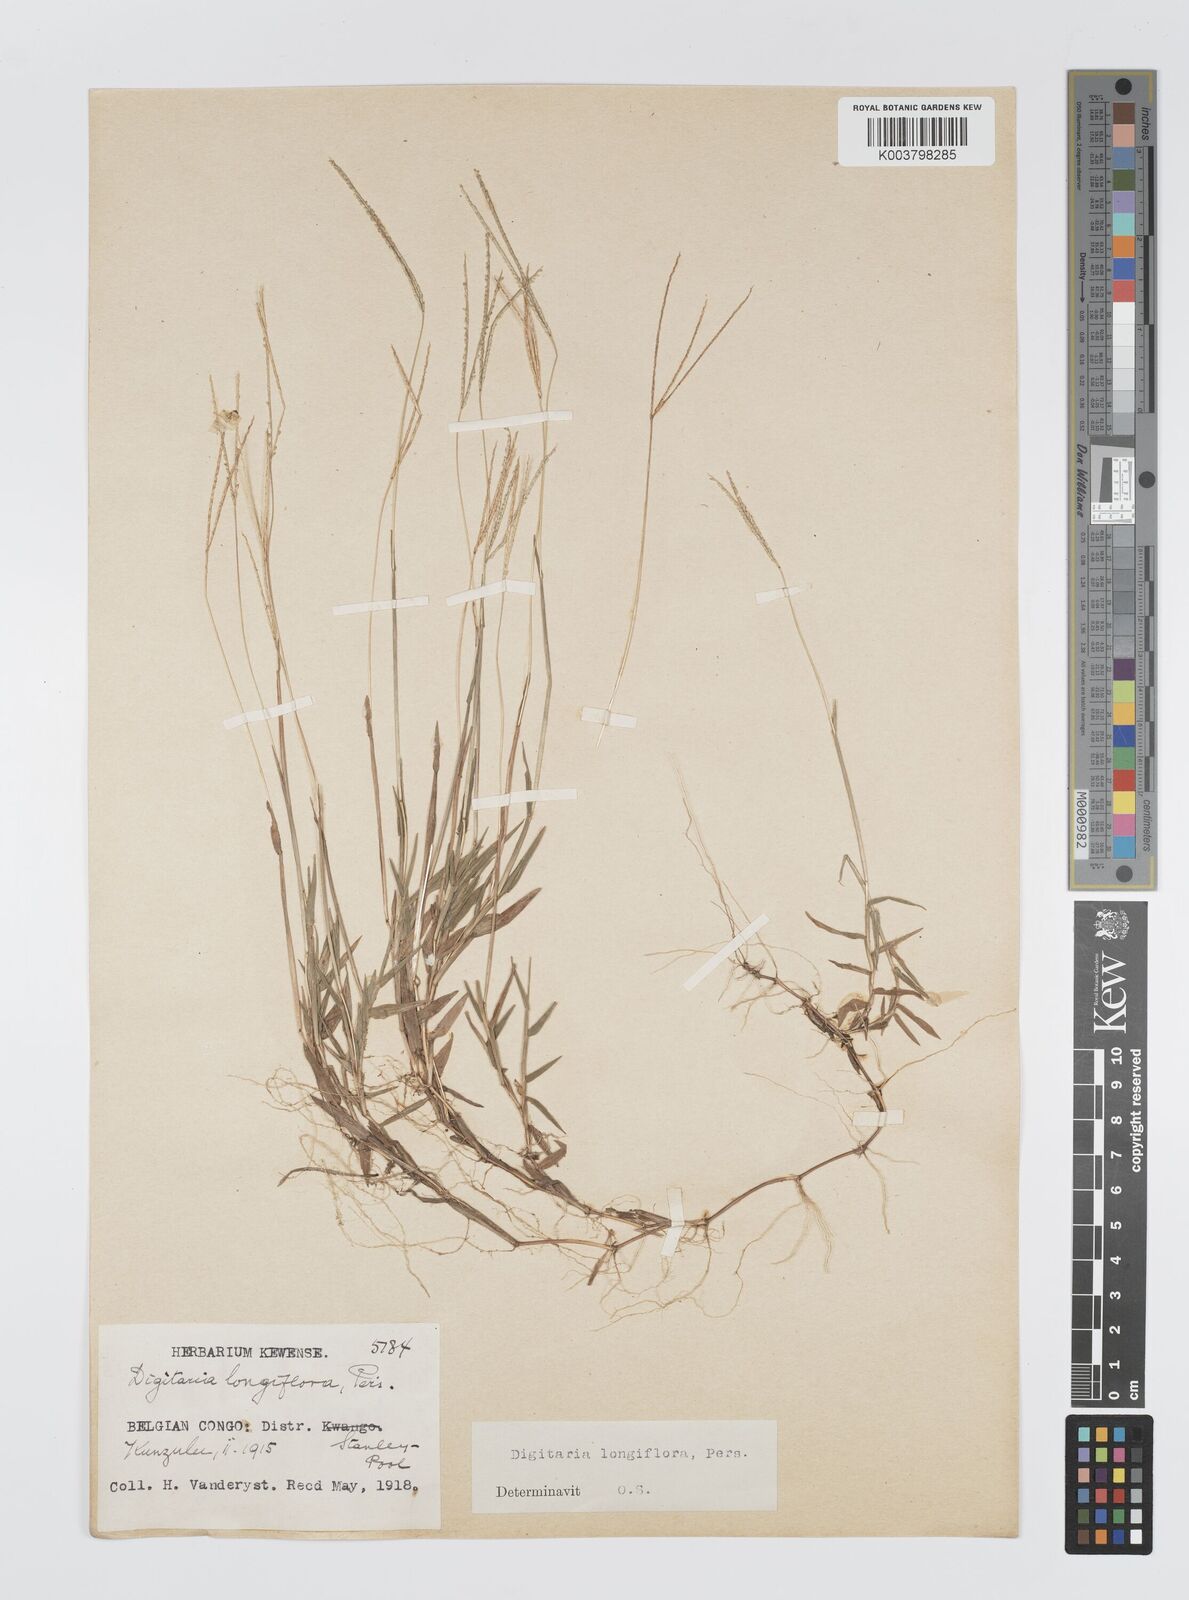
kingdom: Plantae
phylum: Tracheophyta
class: Liliopsida
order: Poales
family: Poaceae
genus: Digitaria
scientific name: Digitaria longiflora
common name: Wire crabgrass
